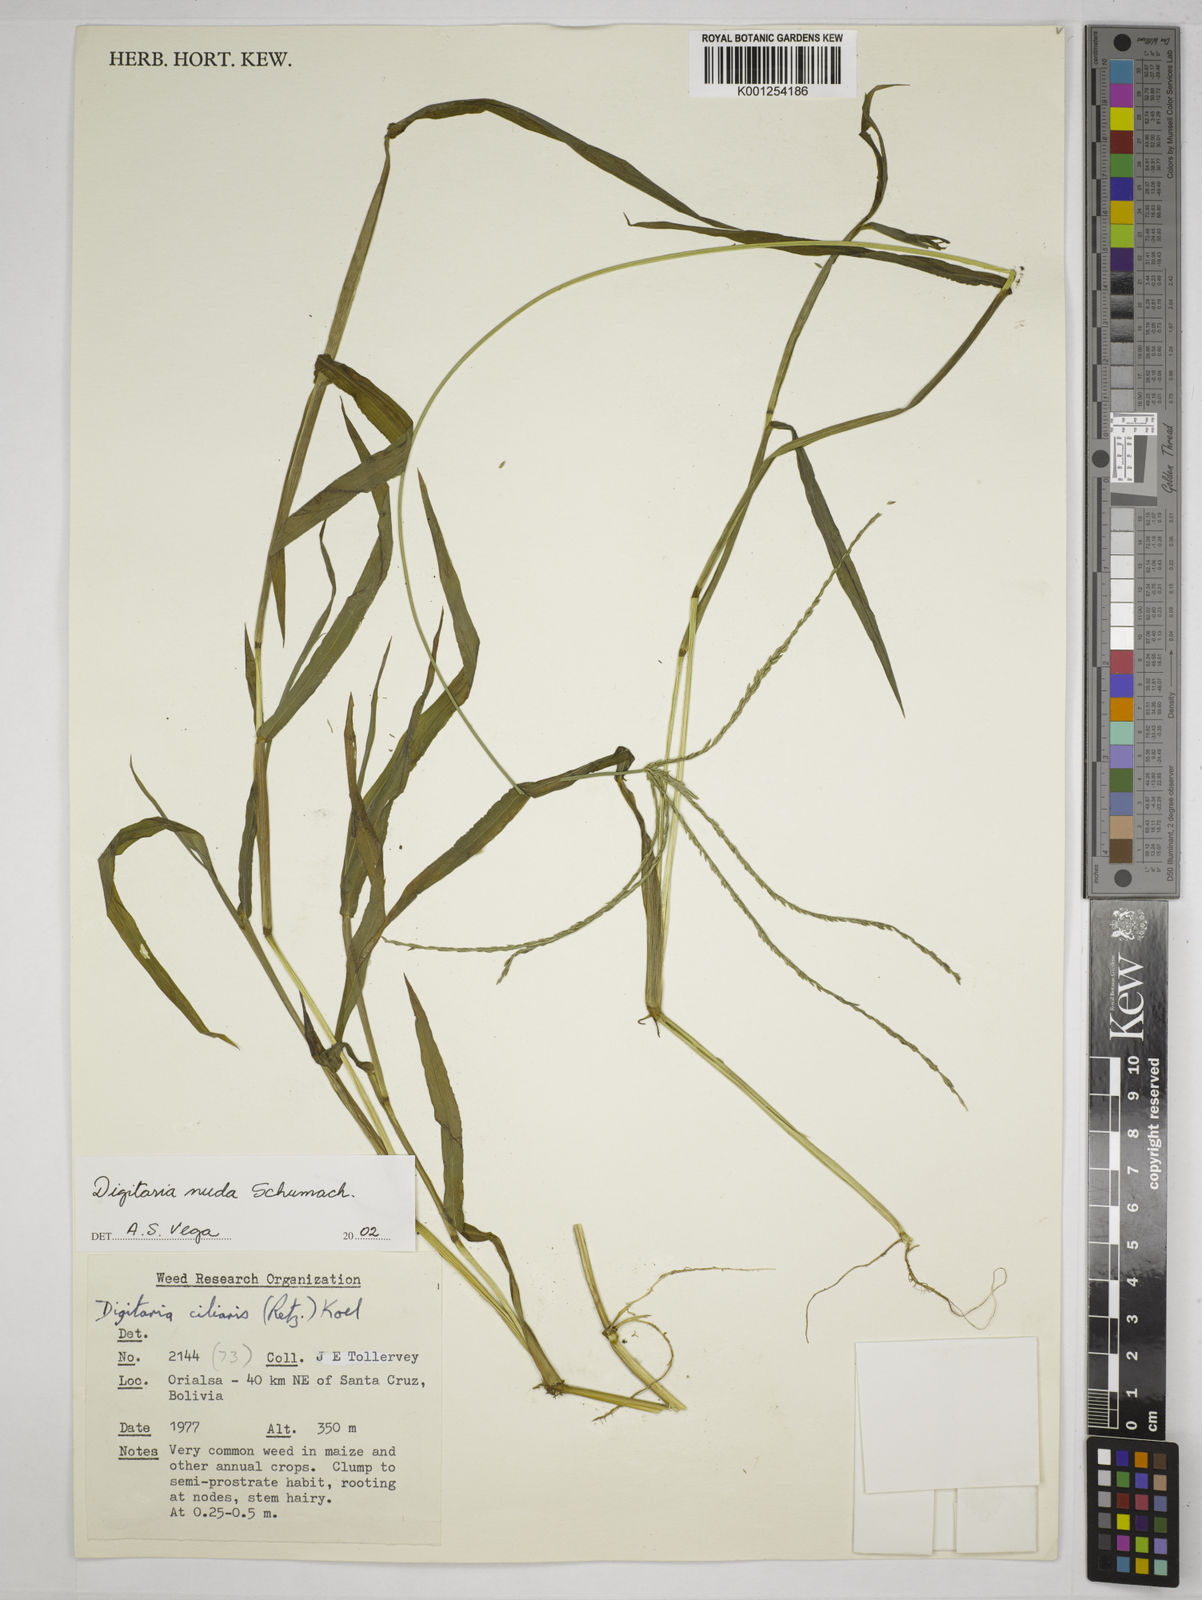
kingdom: Plantae
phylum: Tracheophyta
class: Liliopsida
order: Poales
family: Poaceae
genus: Digitaria
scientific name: Digitaria nuda
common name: Naked crabgrass
